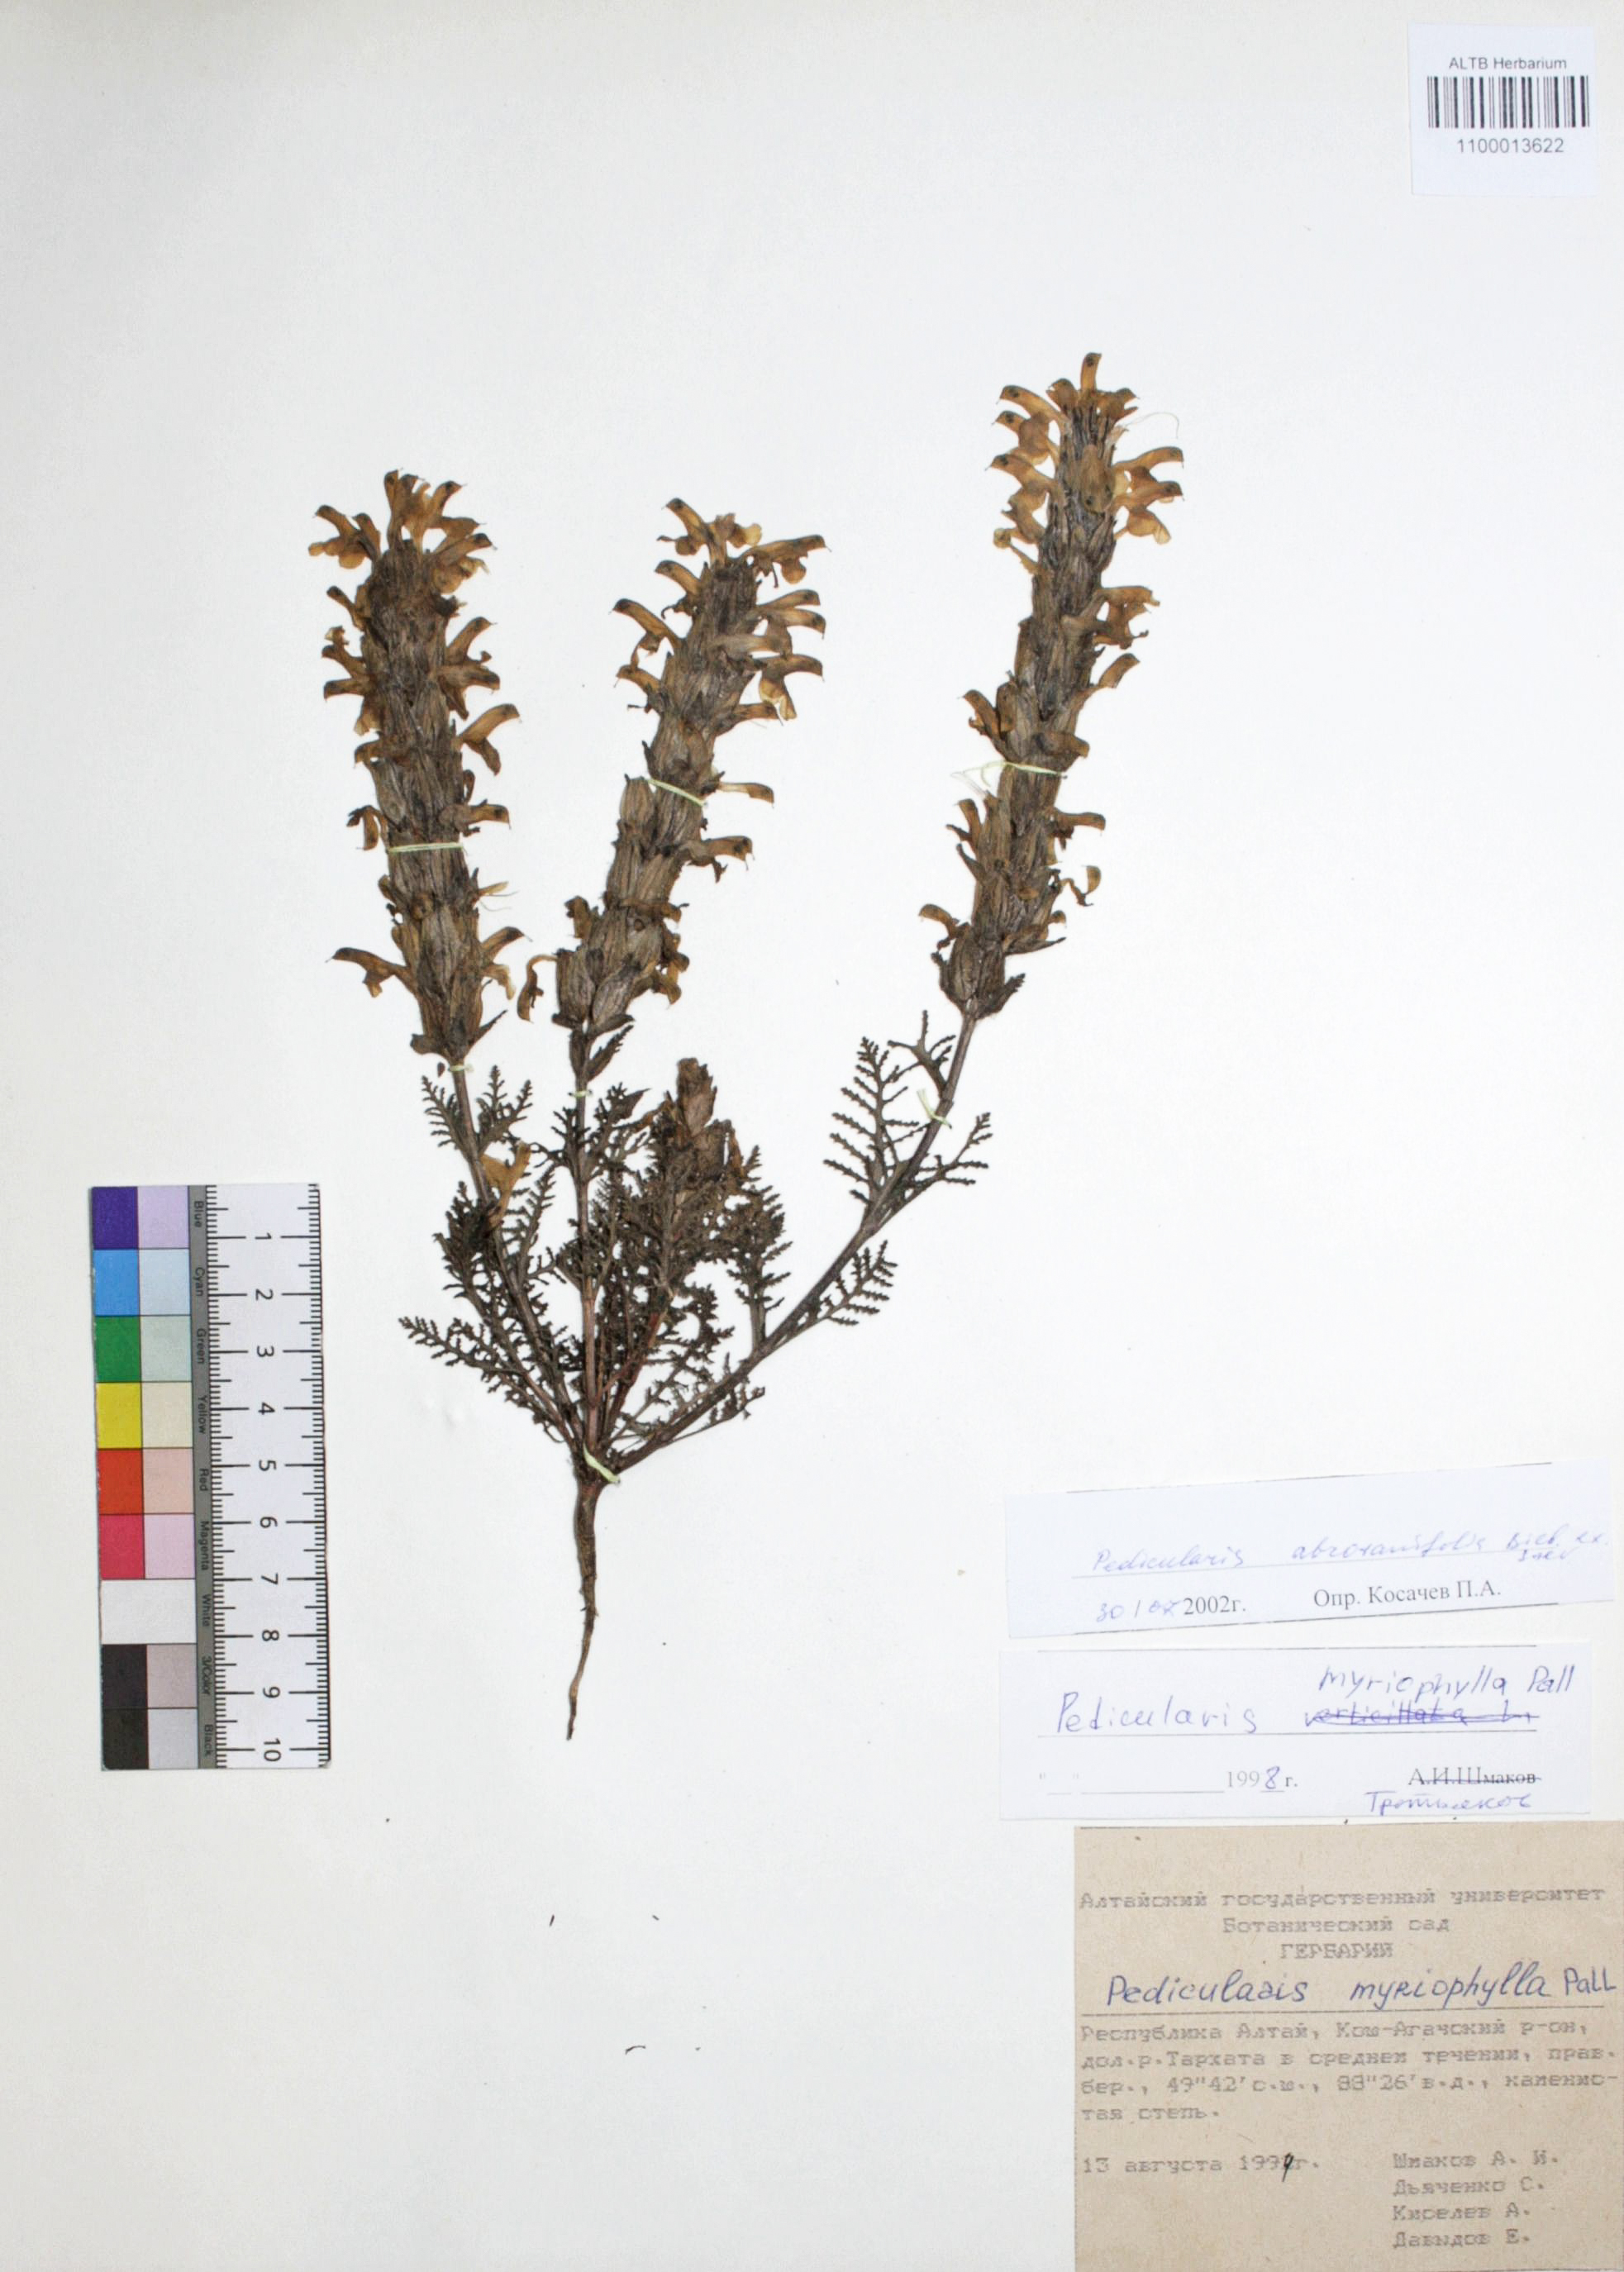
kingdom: Plantae
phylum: Tracheophyta
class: Magnoliopsida
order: Lamiales
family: Orobanchaceae
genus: Pedicularis
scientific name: Pedicularis abrotanifolia
